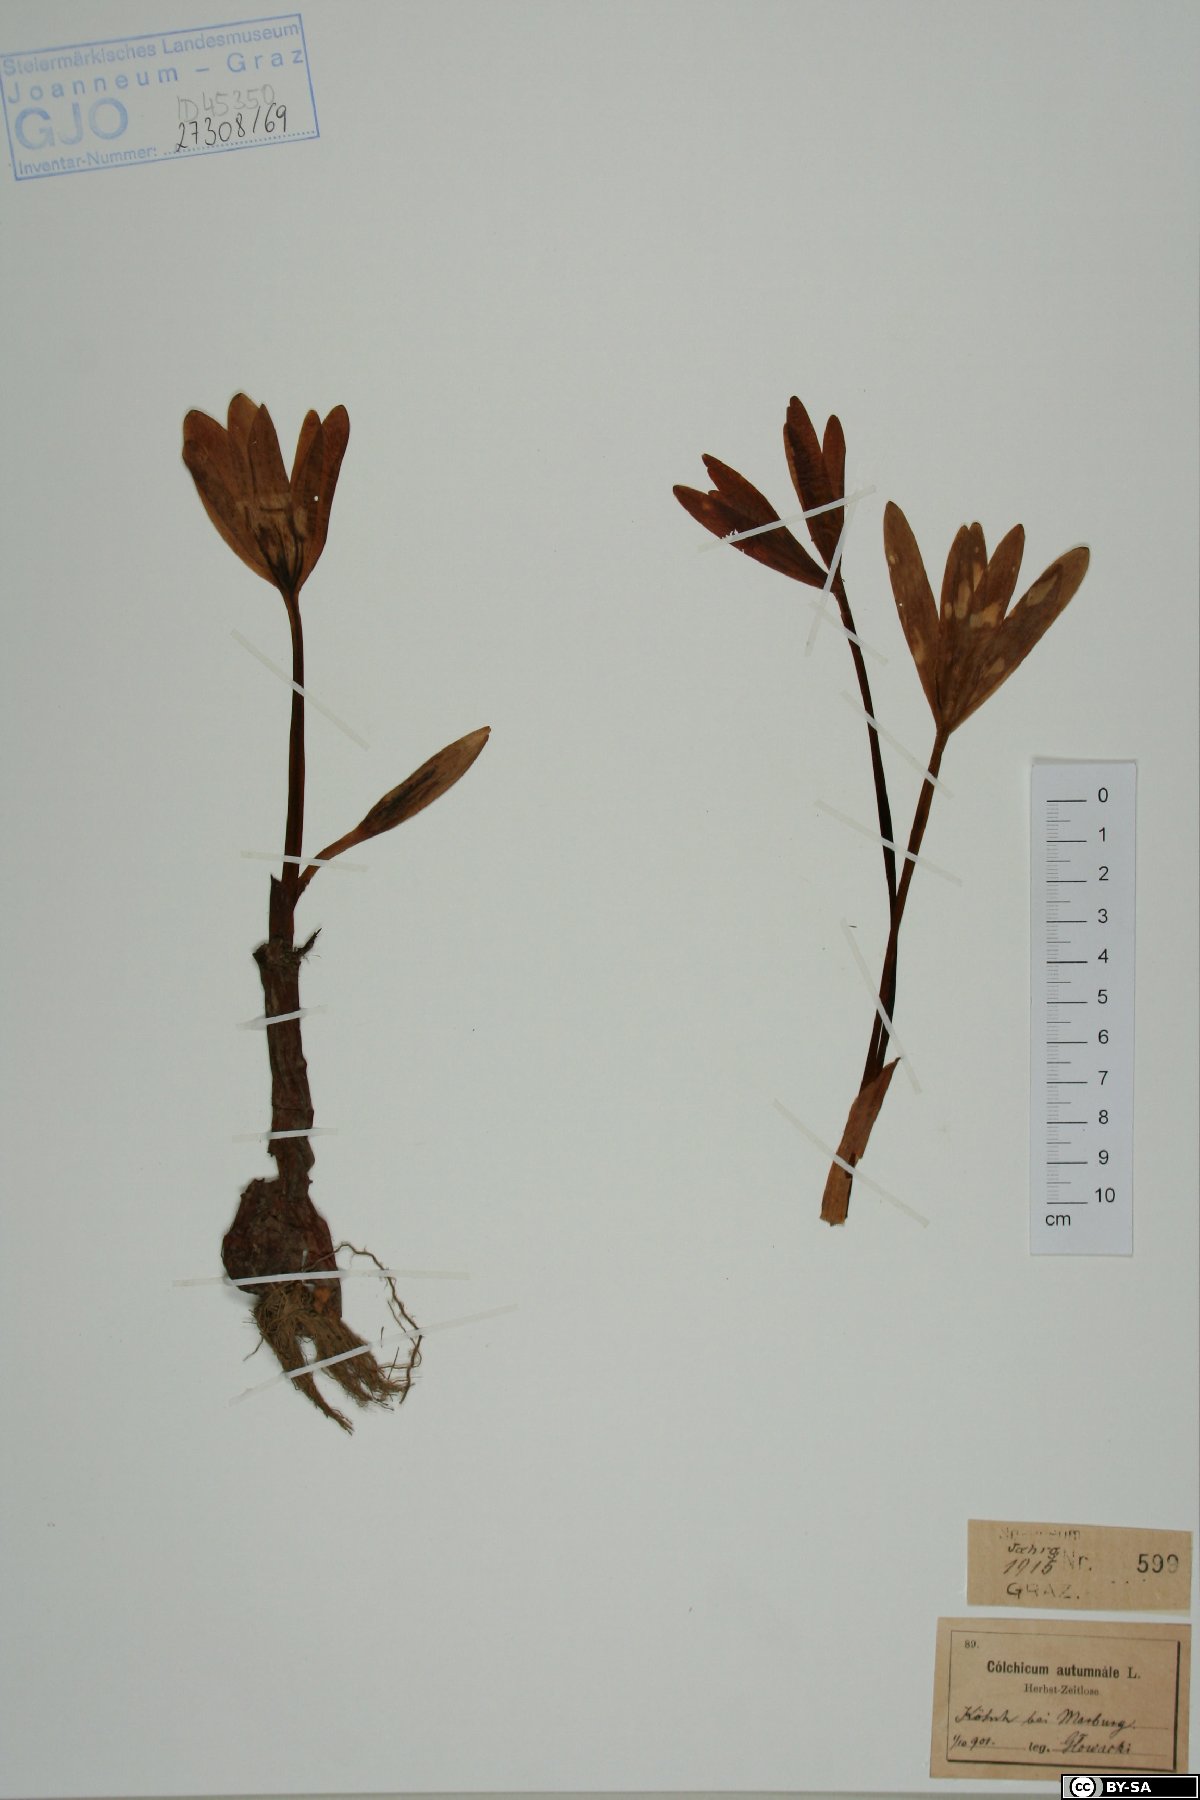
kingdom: Plantae
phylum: Tracheophyta
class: Liliopsida
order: Liliales
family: Colchicaceae
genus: Colchicum
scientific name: Colchicum autumnale
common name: Autumn crocus
